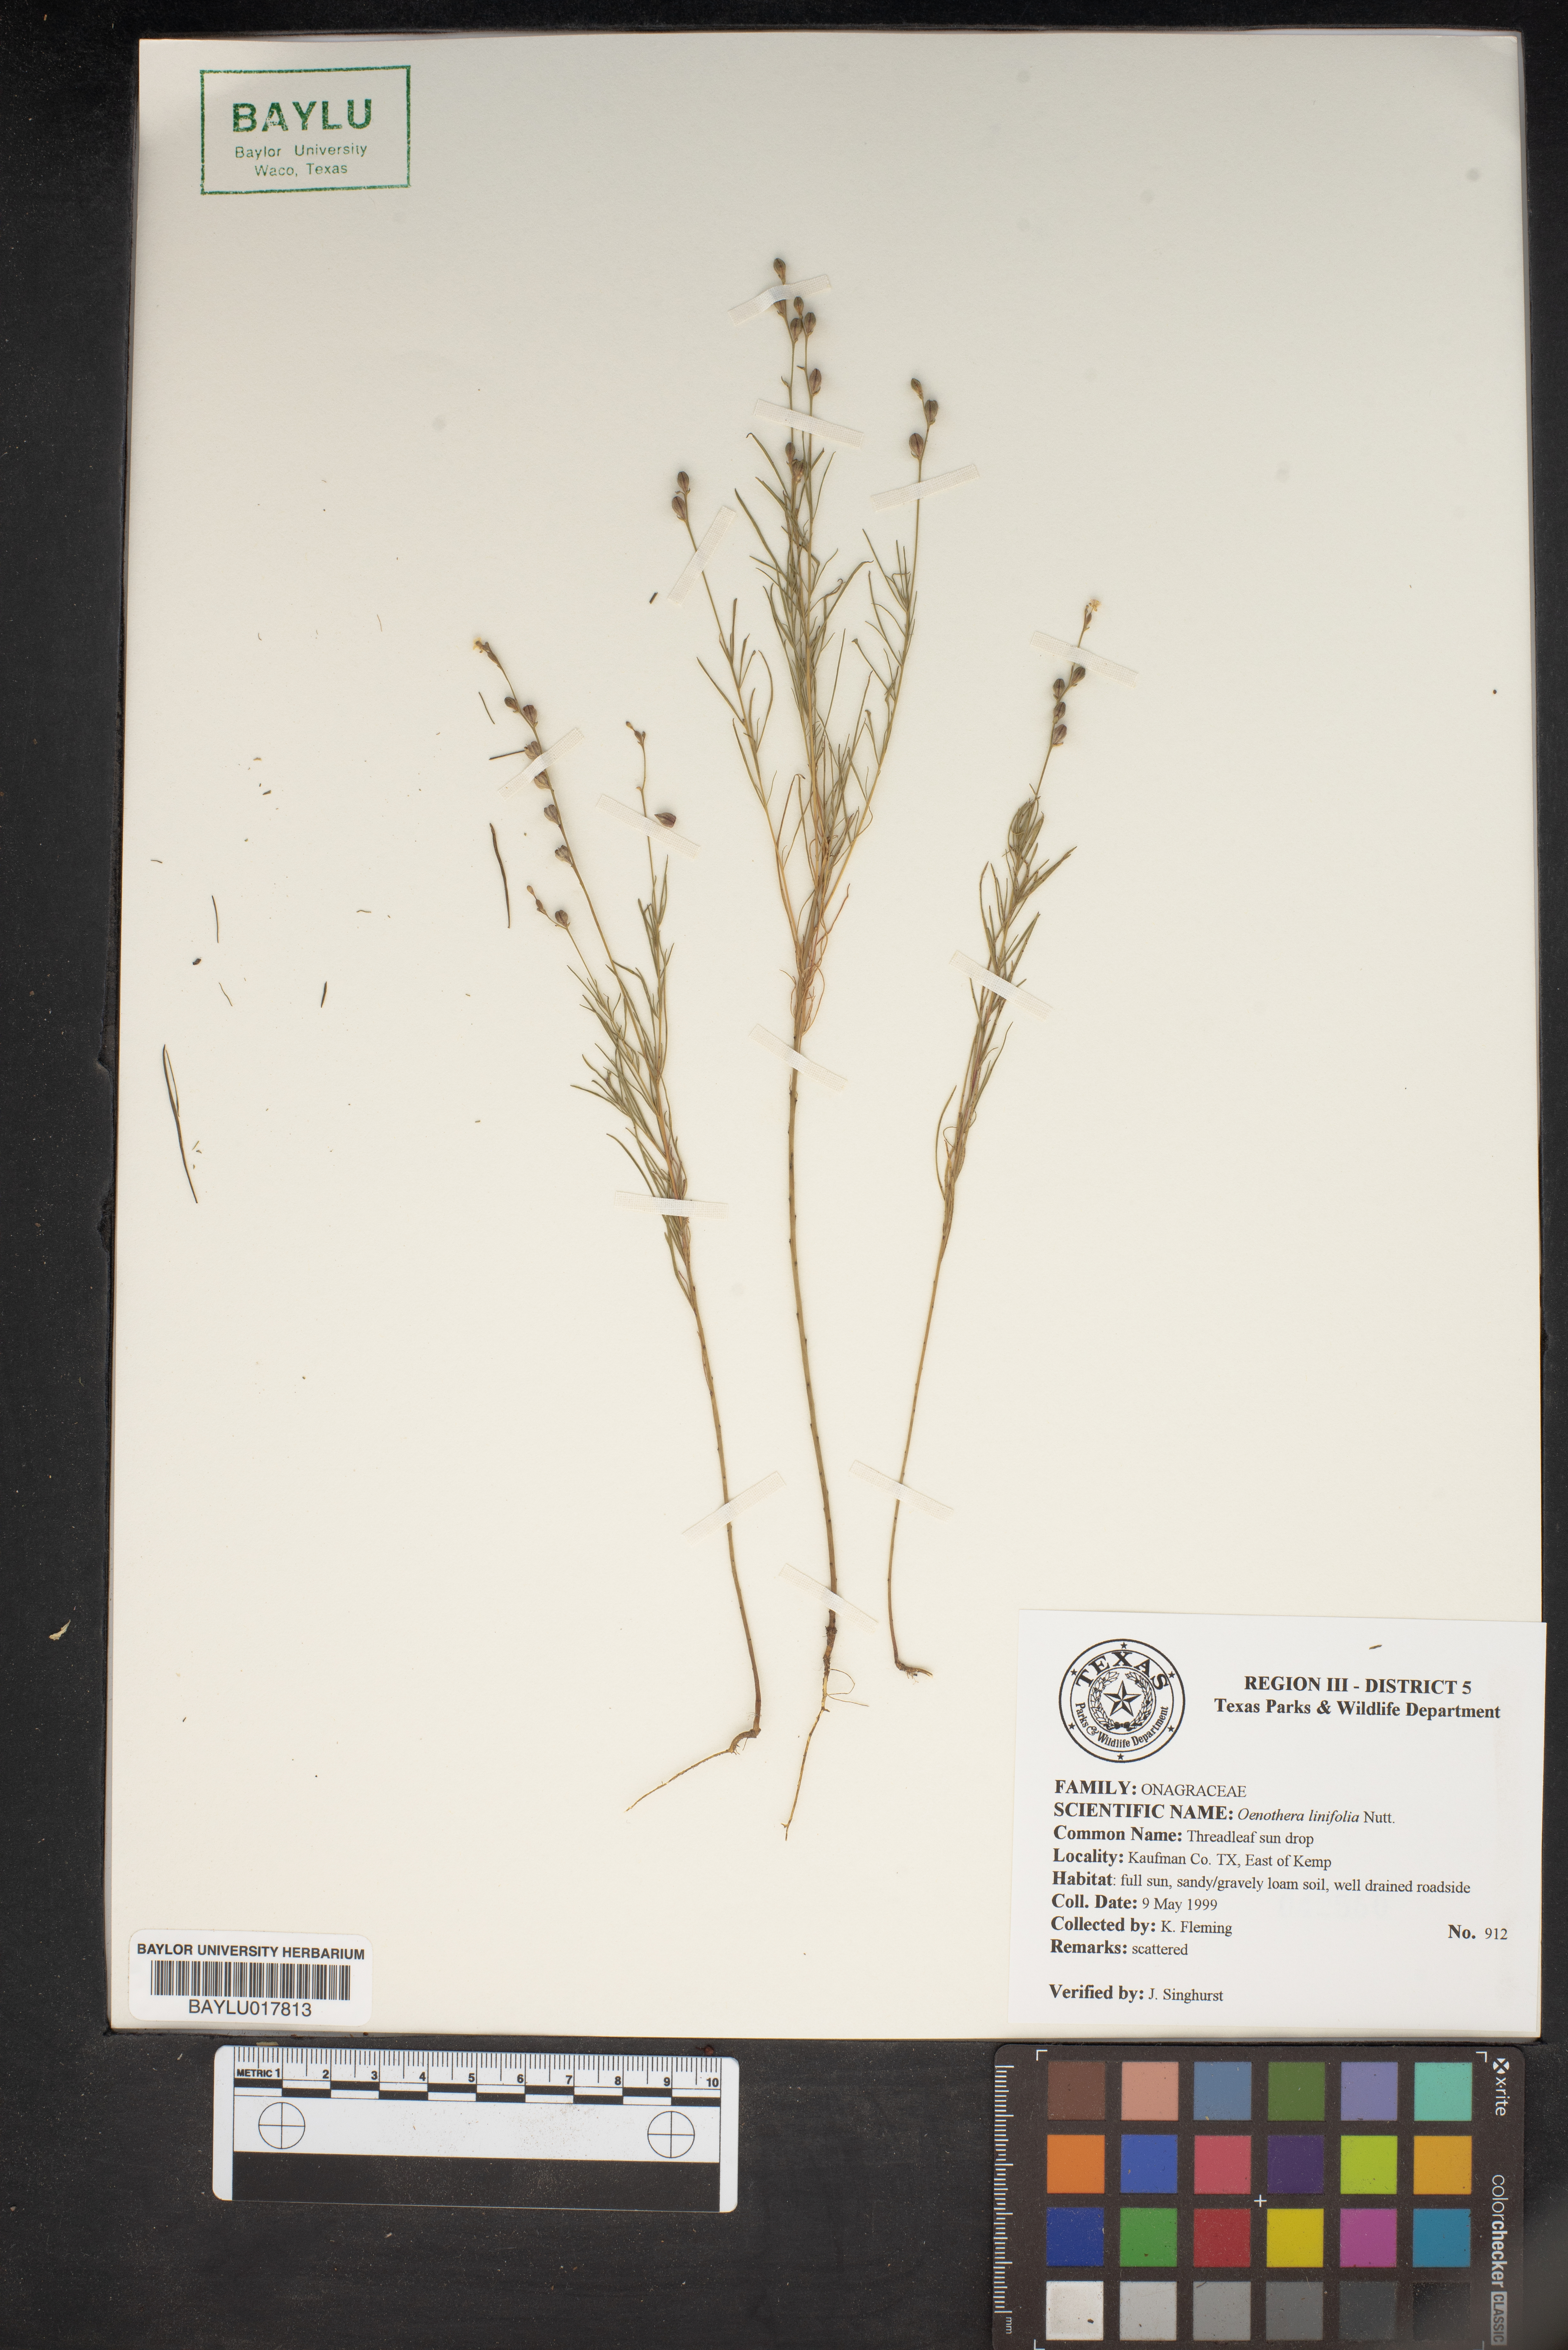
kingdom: Plantae
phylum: Tracheophyta
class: Magnoliopsida
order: Myrtales
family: Onagraceae
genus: Oenothera
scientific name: Oenothera linifolia
